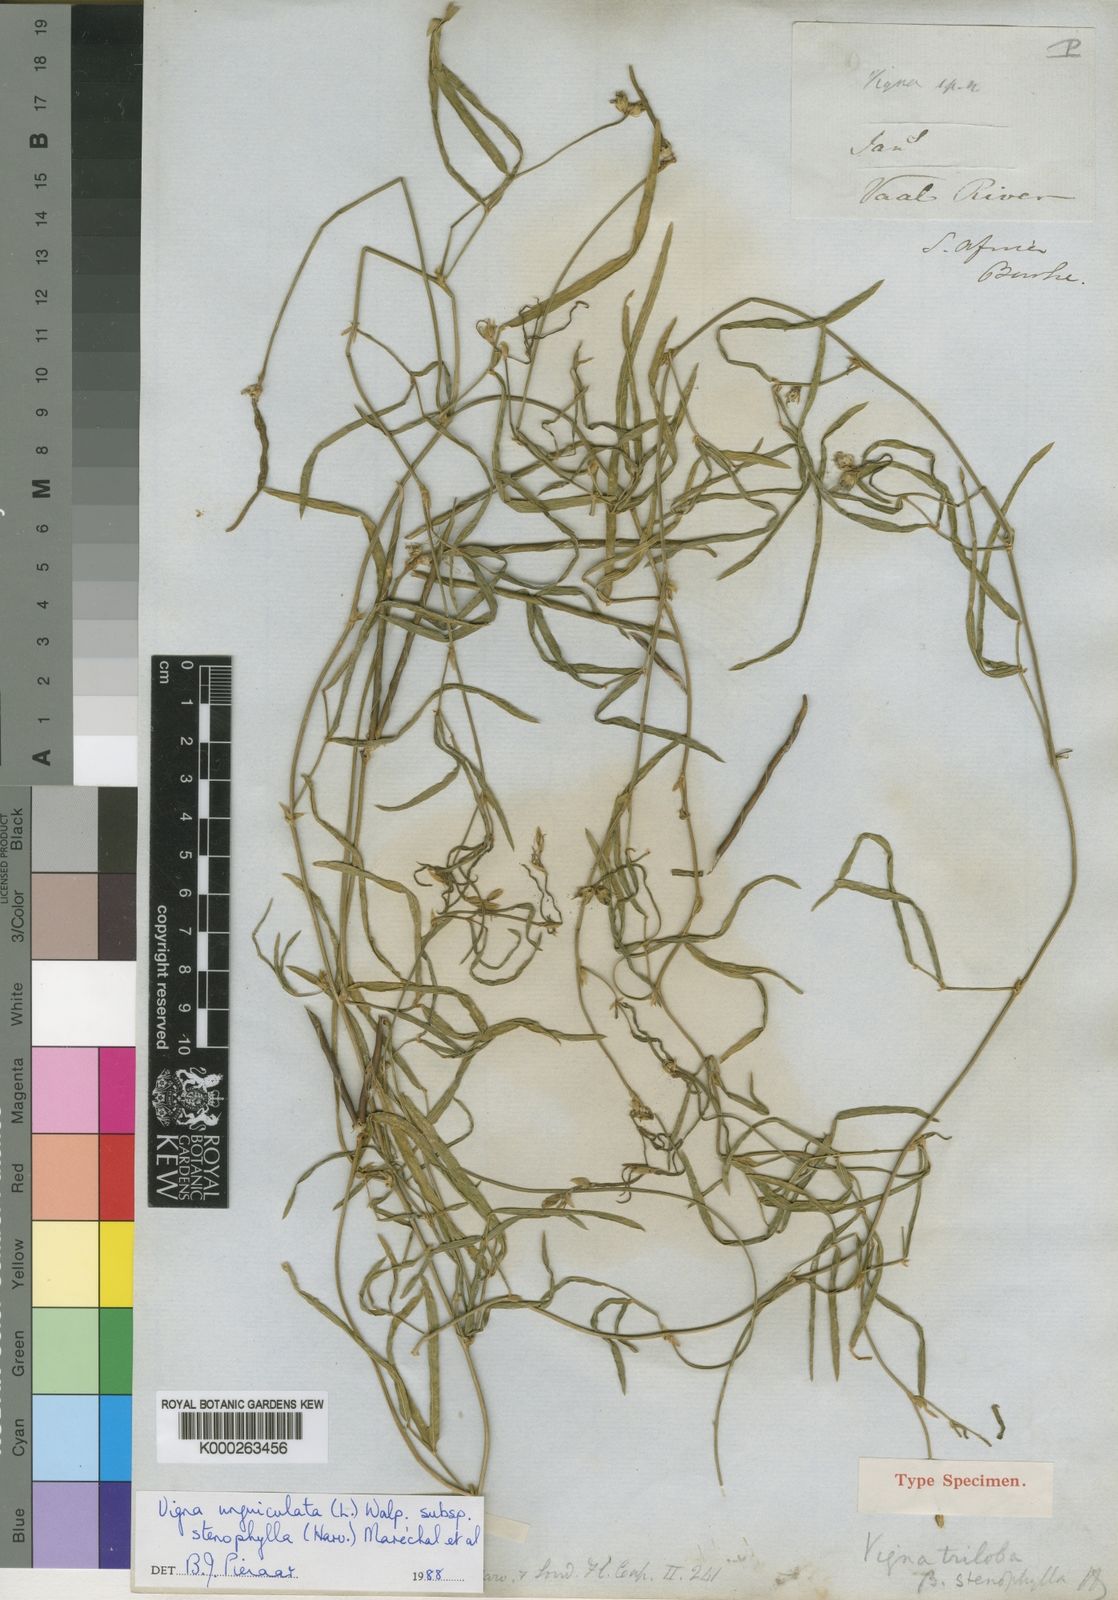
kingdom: Plantae
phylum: Tracheophyta
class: Magnoliopsida
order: Fabales
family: Fabaceae
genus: Vigna
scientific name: Vigna unguiculata
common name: Cowpea
